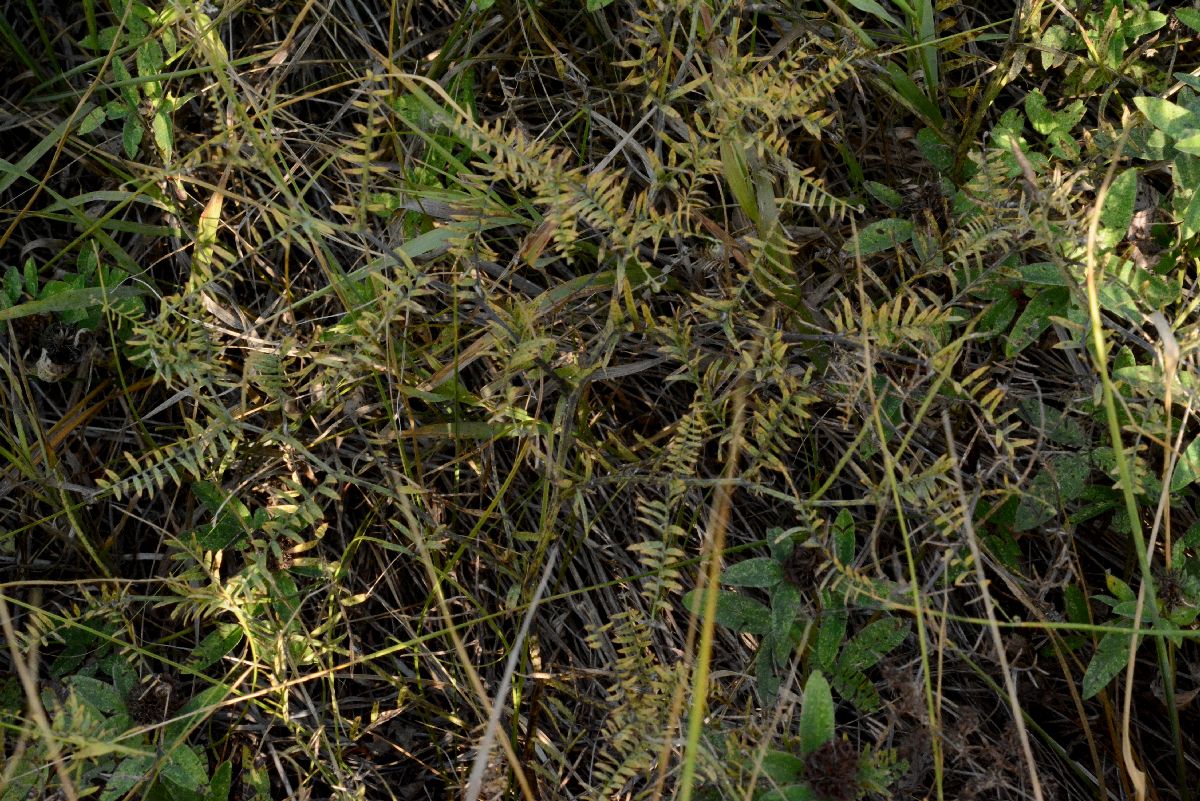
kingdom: Plantae
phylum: Tracheophyta
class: Magnoliopsida
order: Fabales
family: Fabaceae
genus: Vicia
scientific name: Vicia tenuifolia
